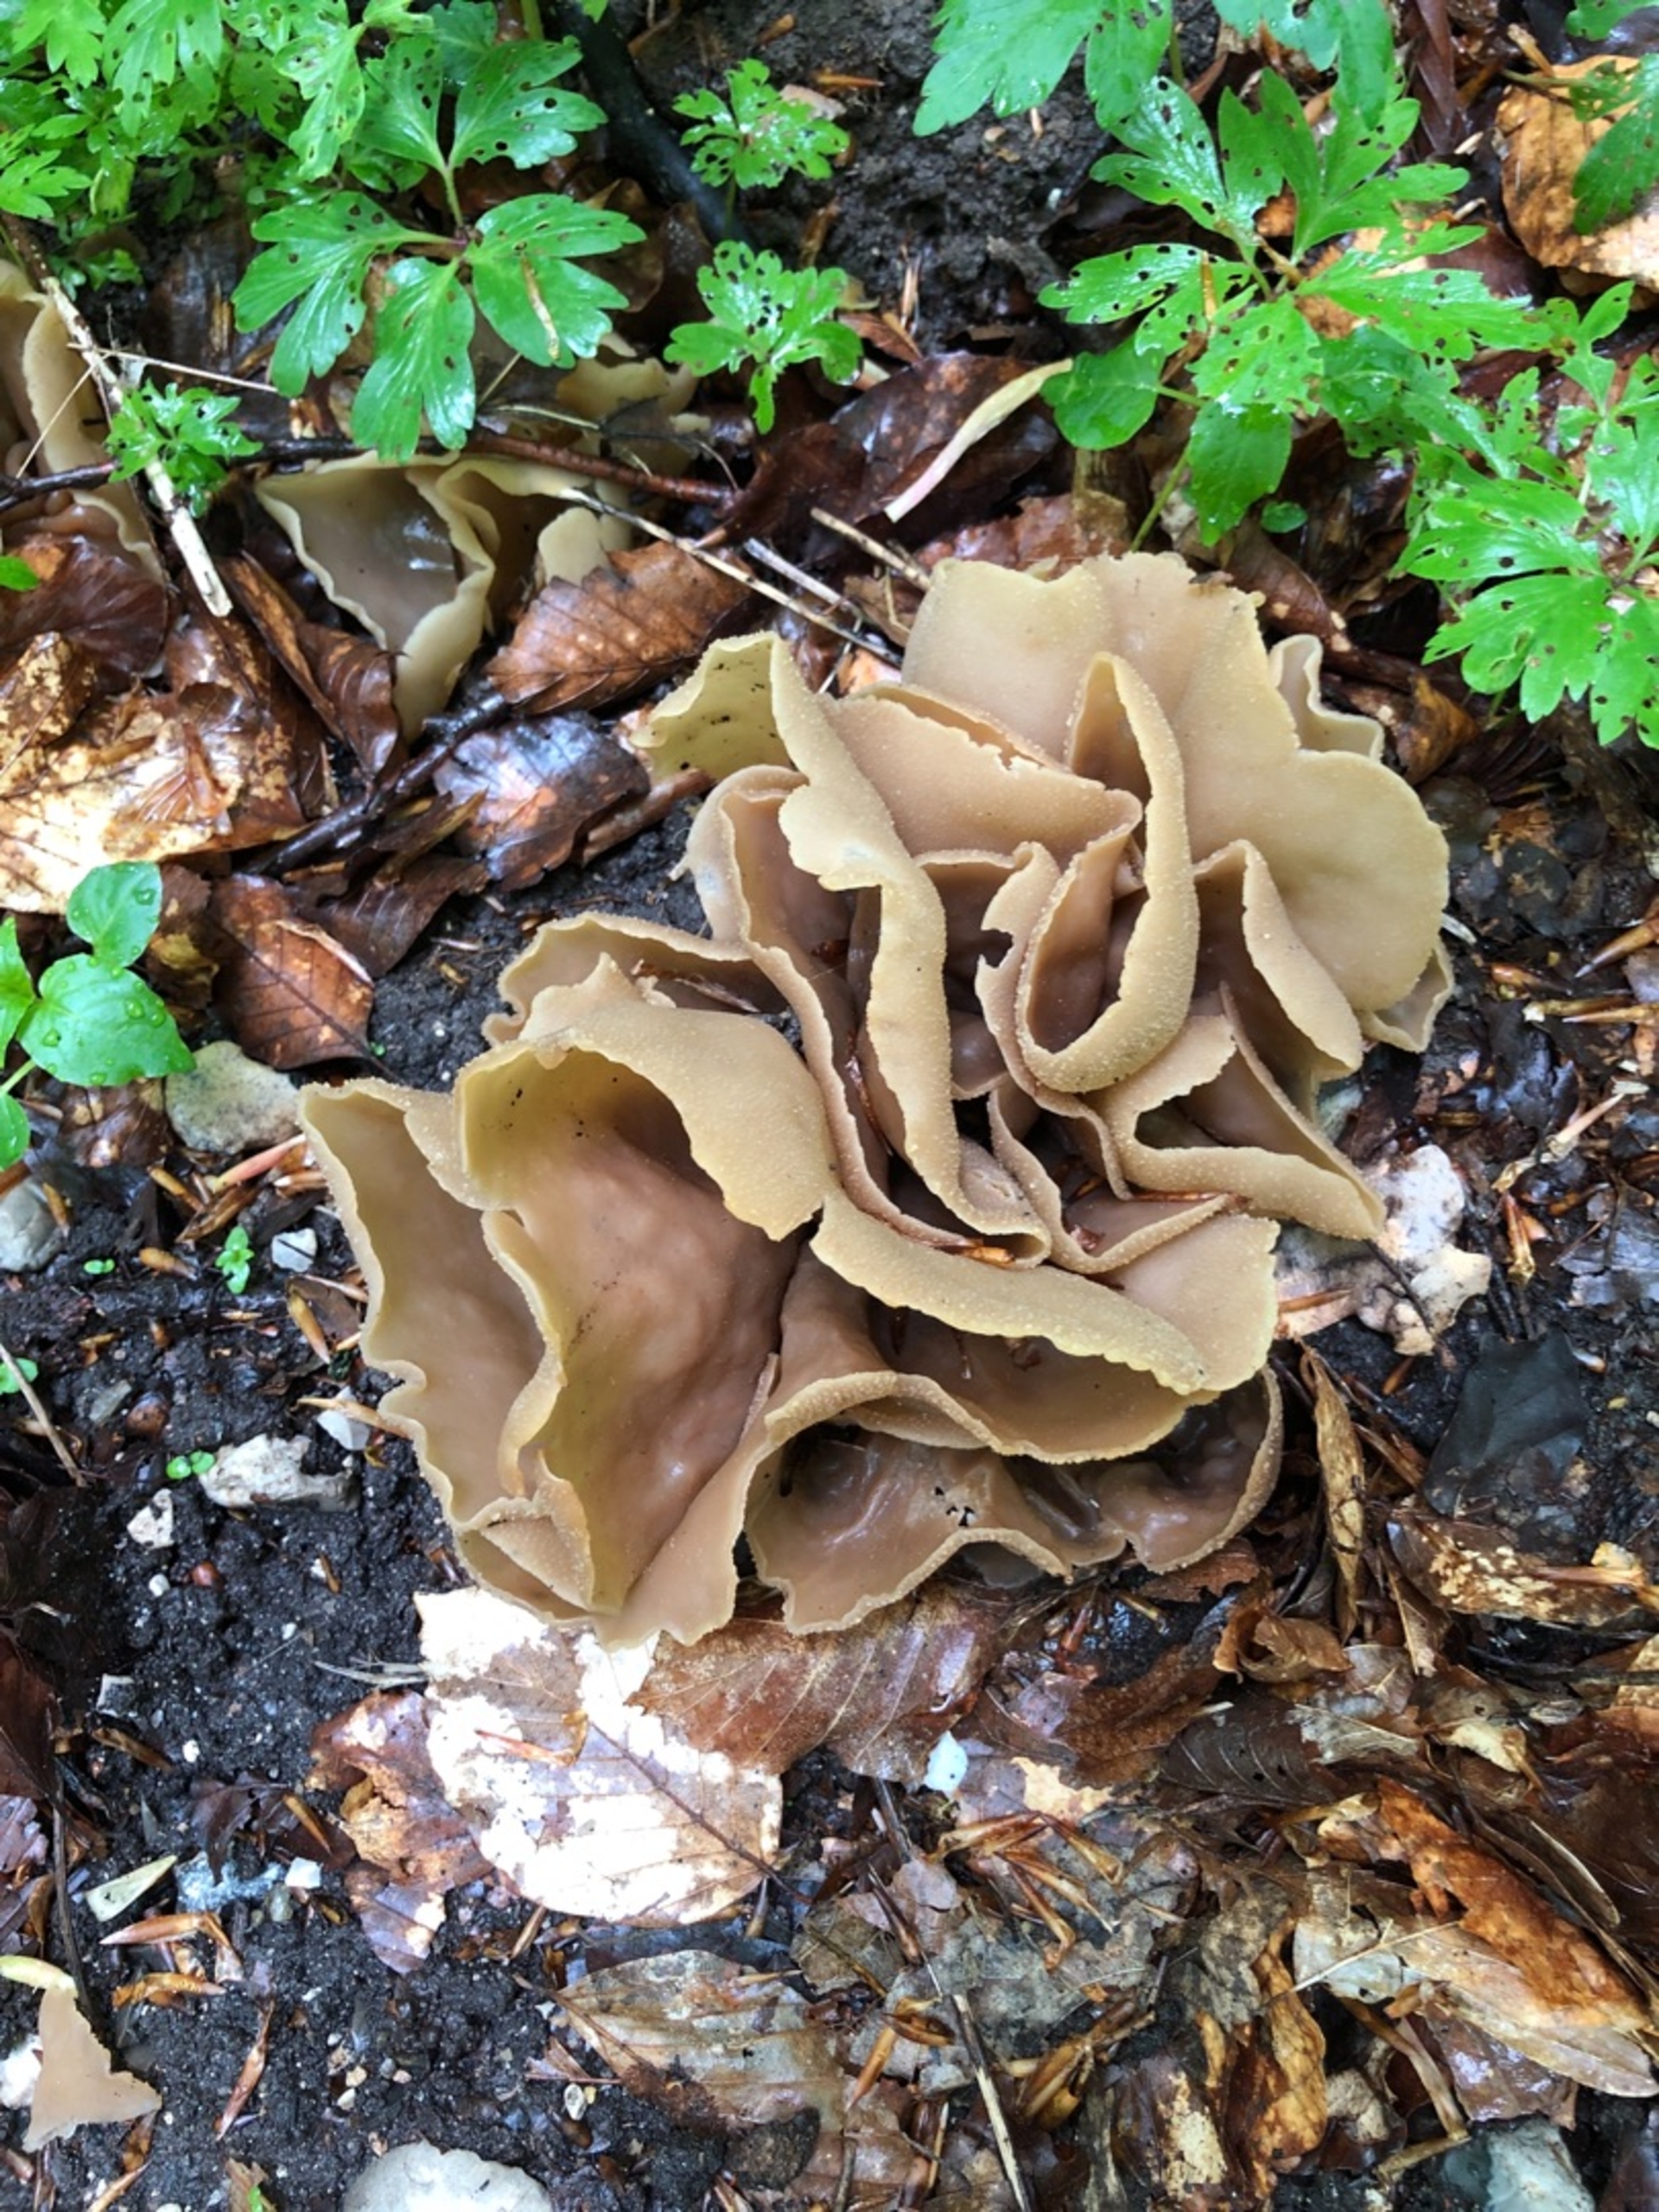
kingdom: Fungi
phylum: Ascomycota
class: Pezizomycetes
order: Pezizales
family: Pezizaceae
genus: Peziza
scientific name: Peziza
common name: Bægersvamp
